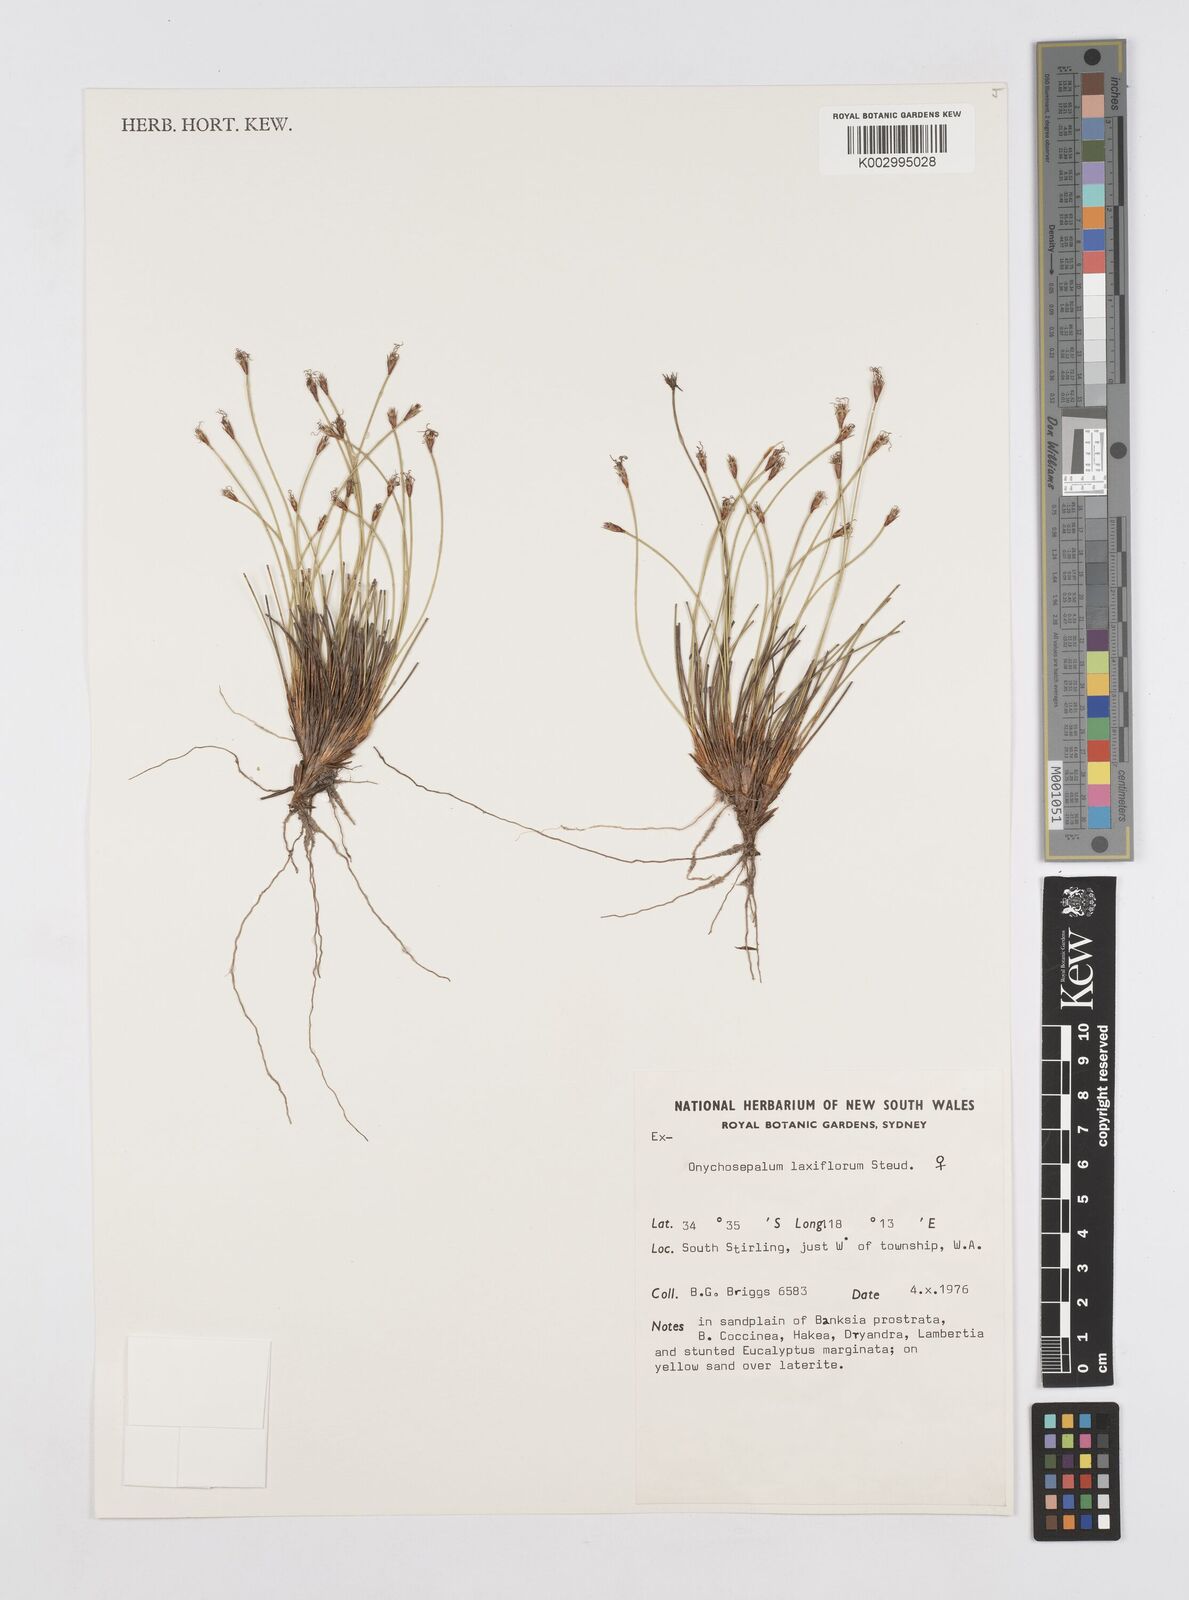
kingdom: Plantae
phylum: Tracheophyta
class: Liliopsida
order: Poales
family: Restionaceae
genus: Desmocladus
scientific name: Desmocladus laxiflorus
